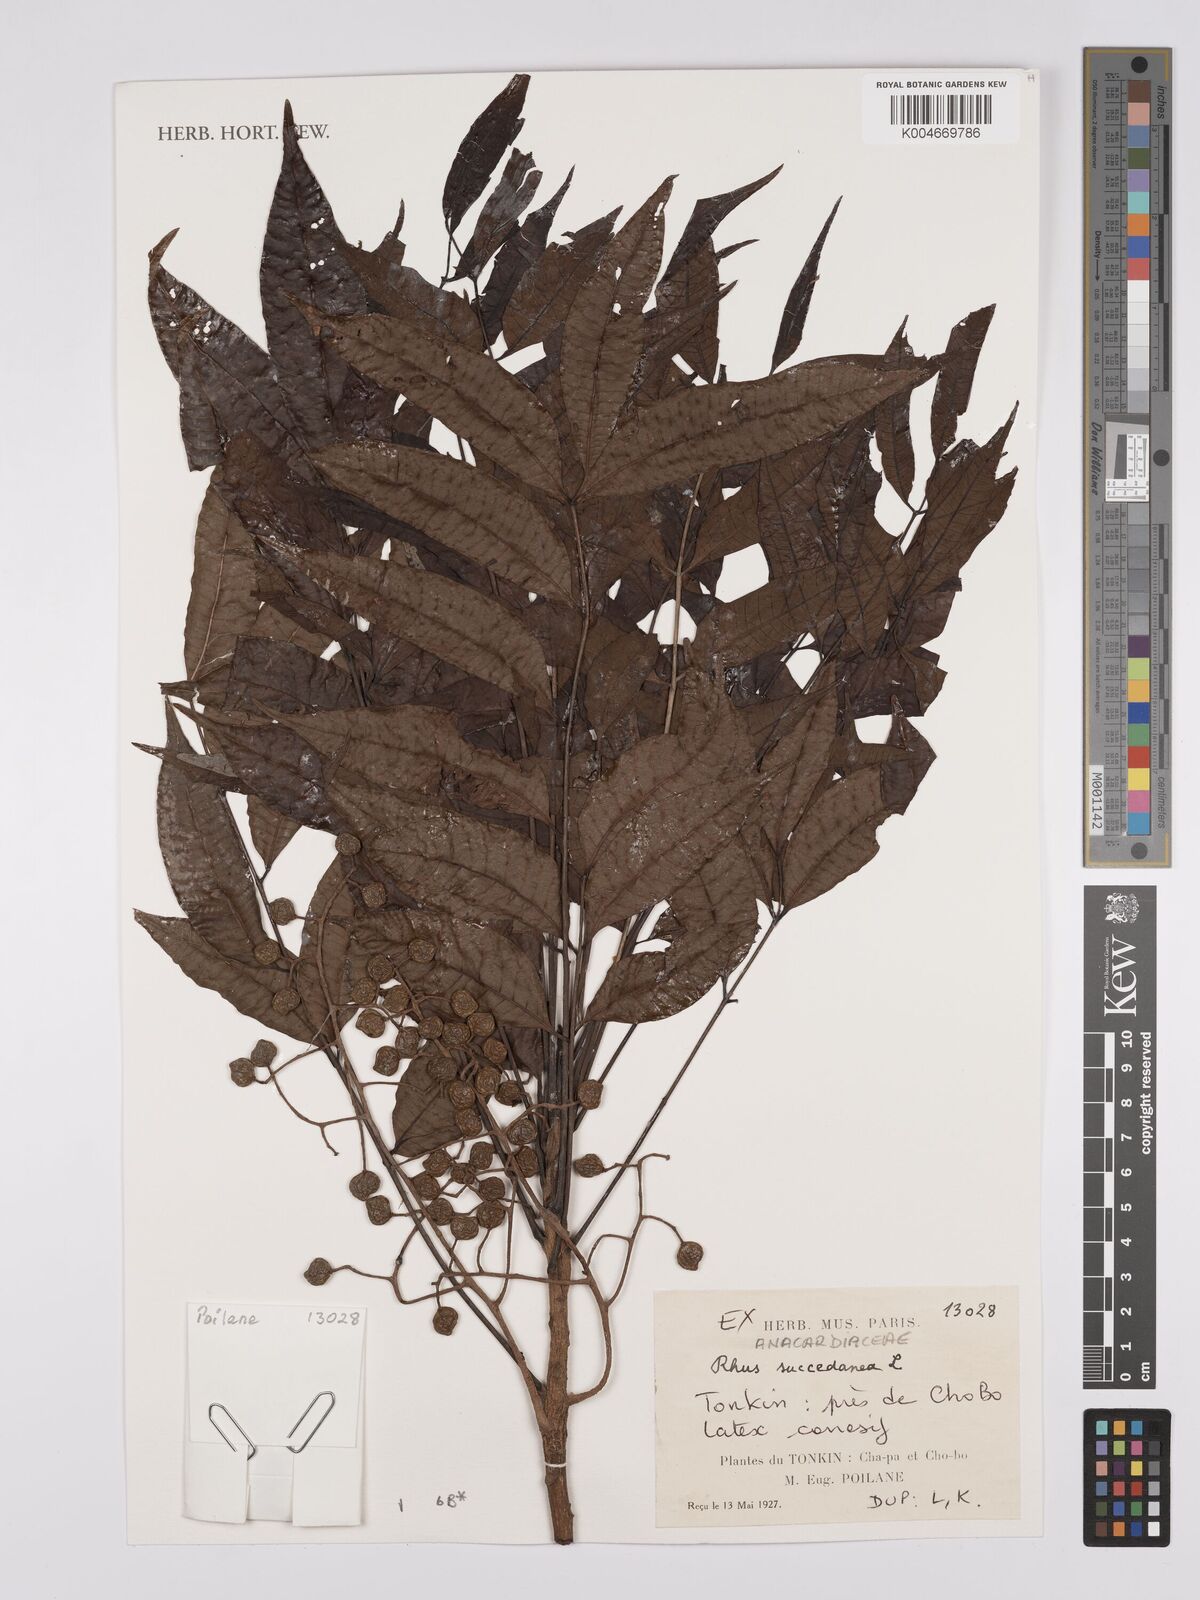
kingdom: Plantae
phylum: Tracheophyta
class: Magnoliopsida
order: Sapindales
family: Anacardiaceae
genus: Toxicodendron
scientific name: Toxicodendron succedaneum
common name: Wax tree
